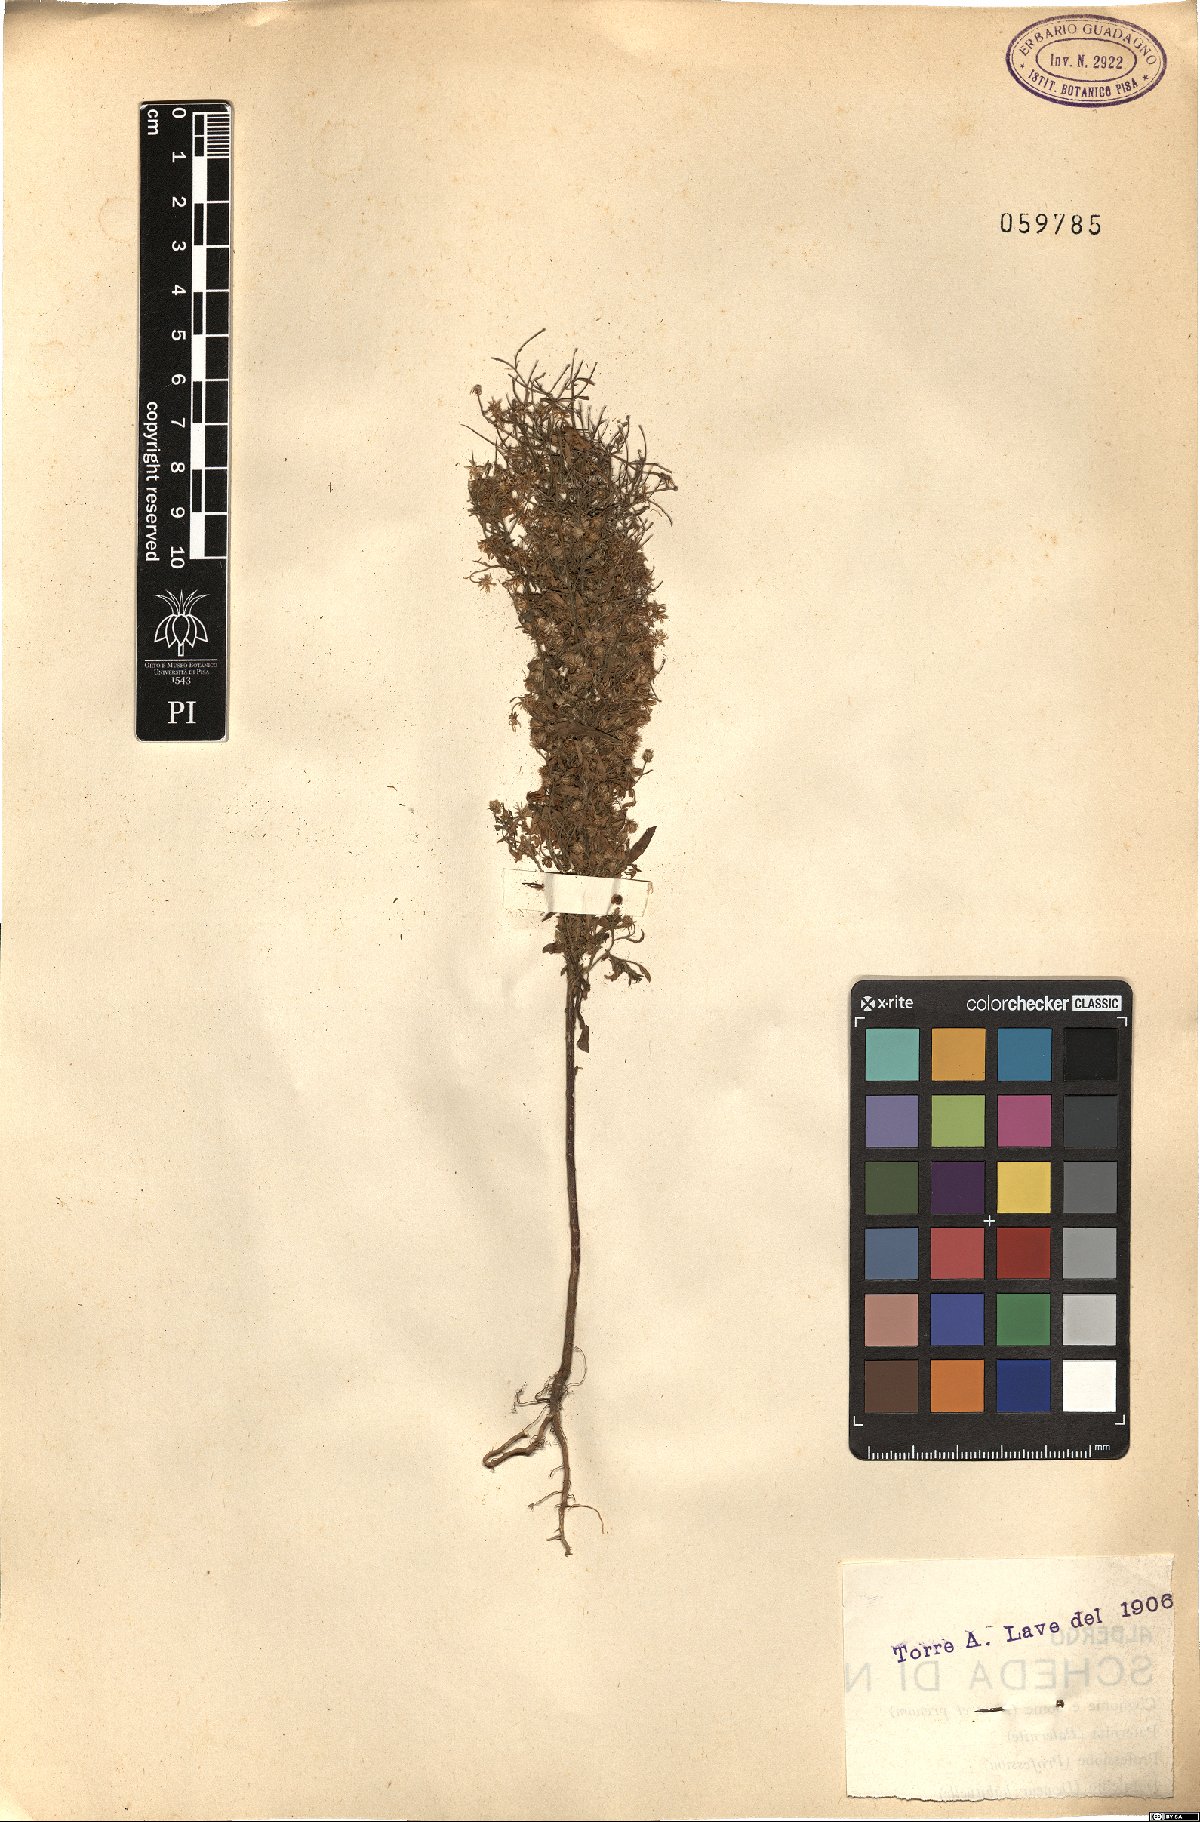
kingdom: Plantae
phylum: Tracheophyta
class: Magnoliopsida
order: Asterales
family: Asteraceae
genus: Erigeron
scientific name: Erigeron
